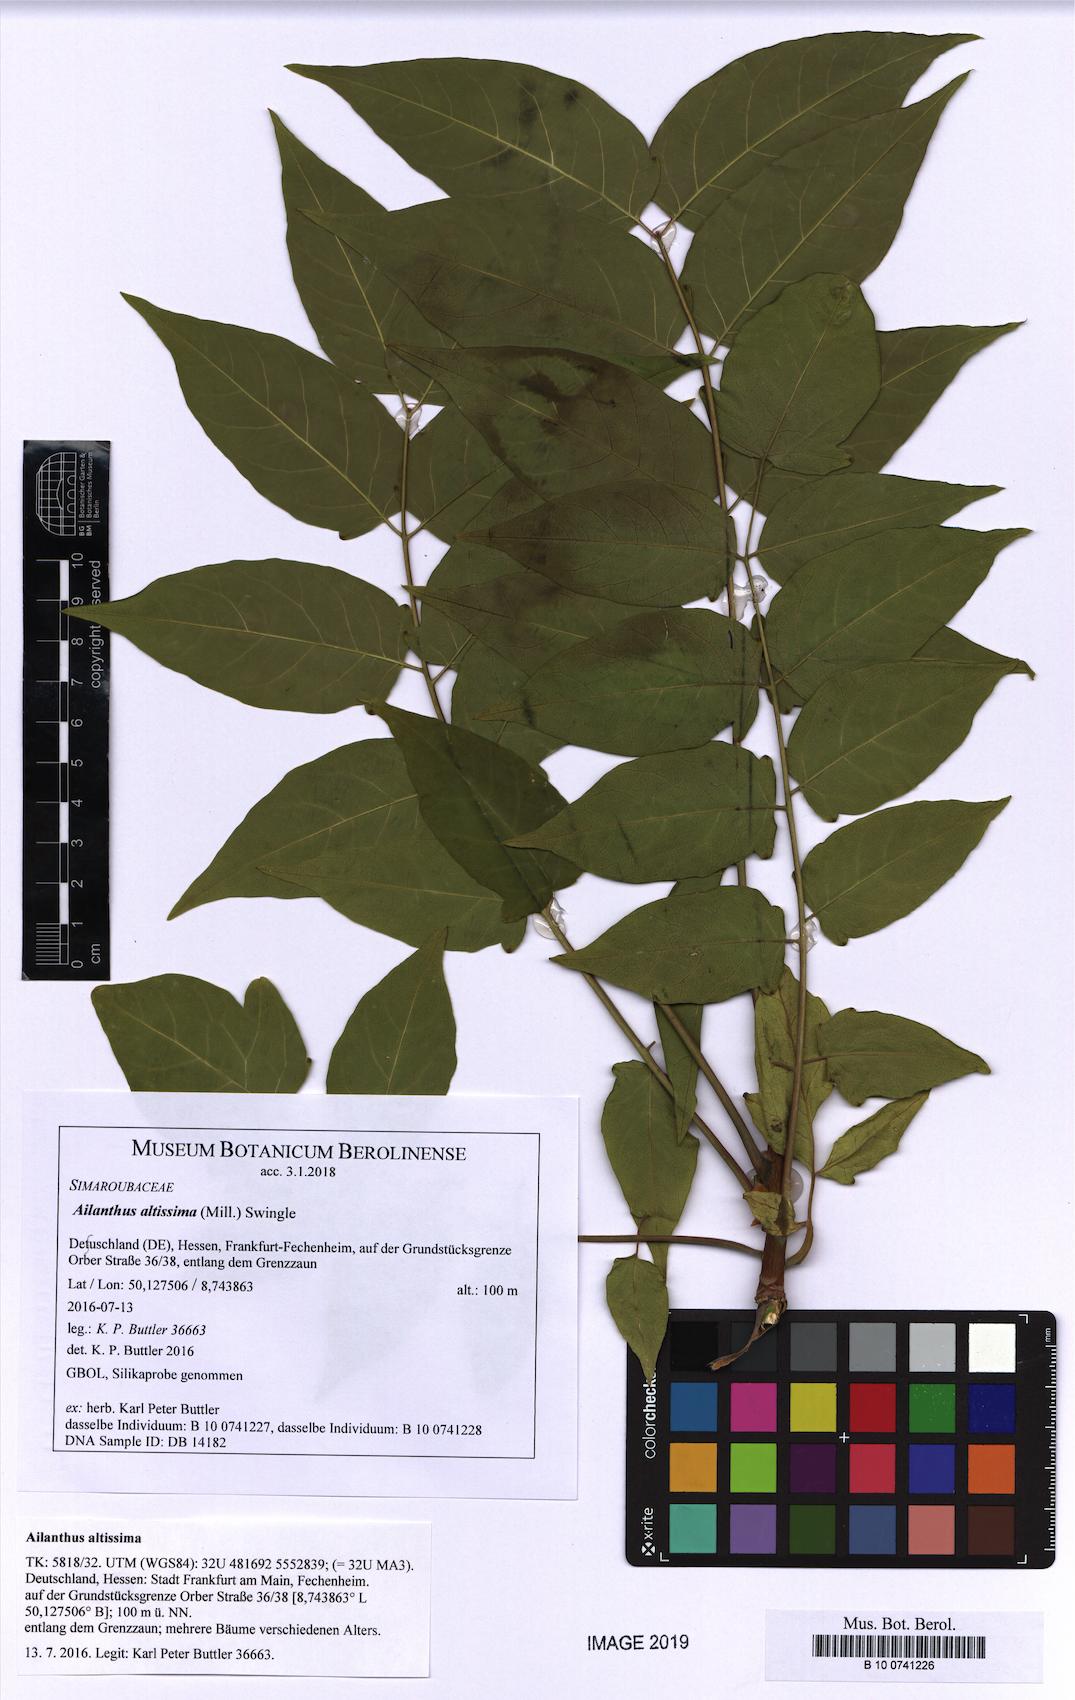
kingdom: Plantae
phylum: Tracheophyta
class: Magnoliopsida
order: Sapindales
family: Simaroubaceae
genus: Ailanthus
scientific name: Ailanthus altissima
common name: Tree-of-heaven
